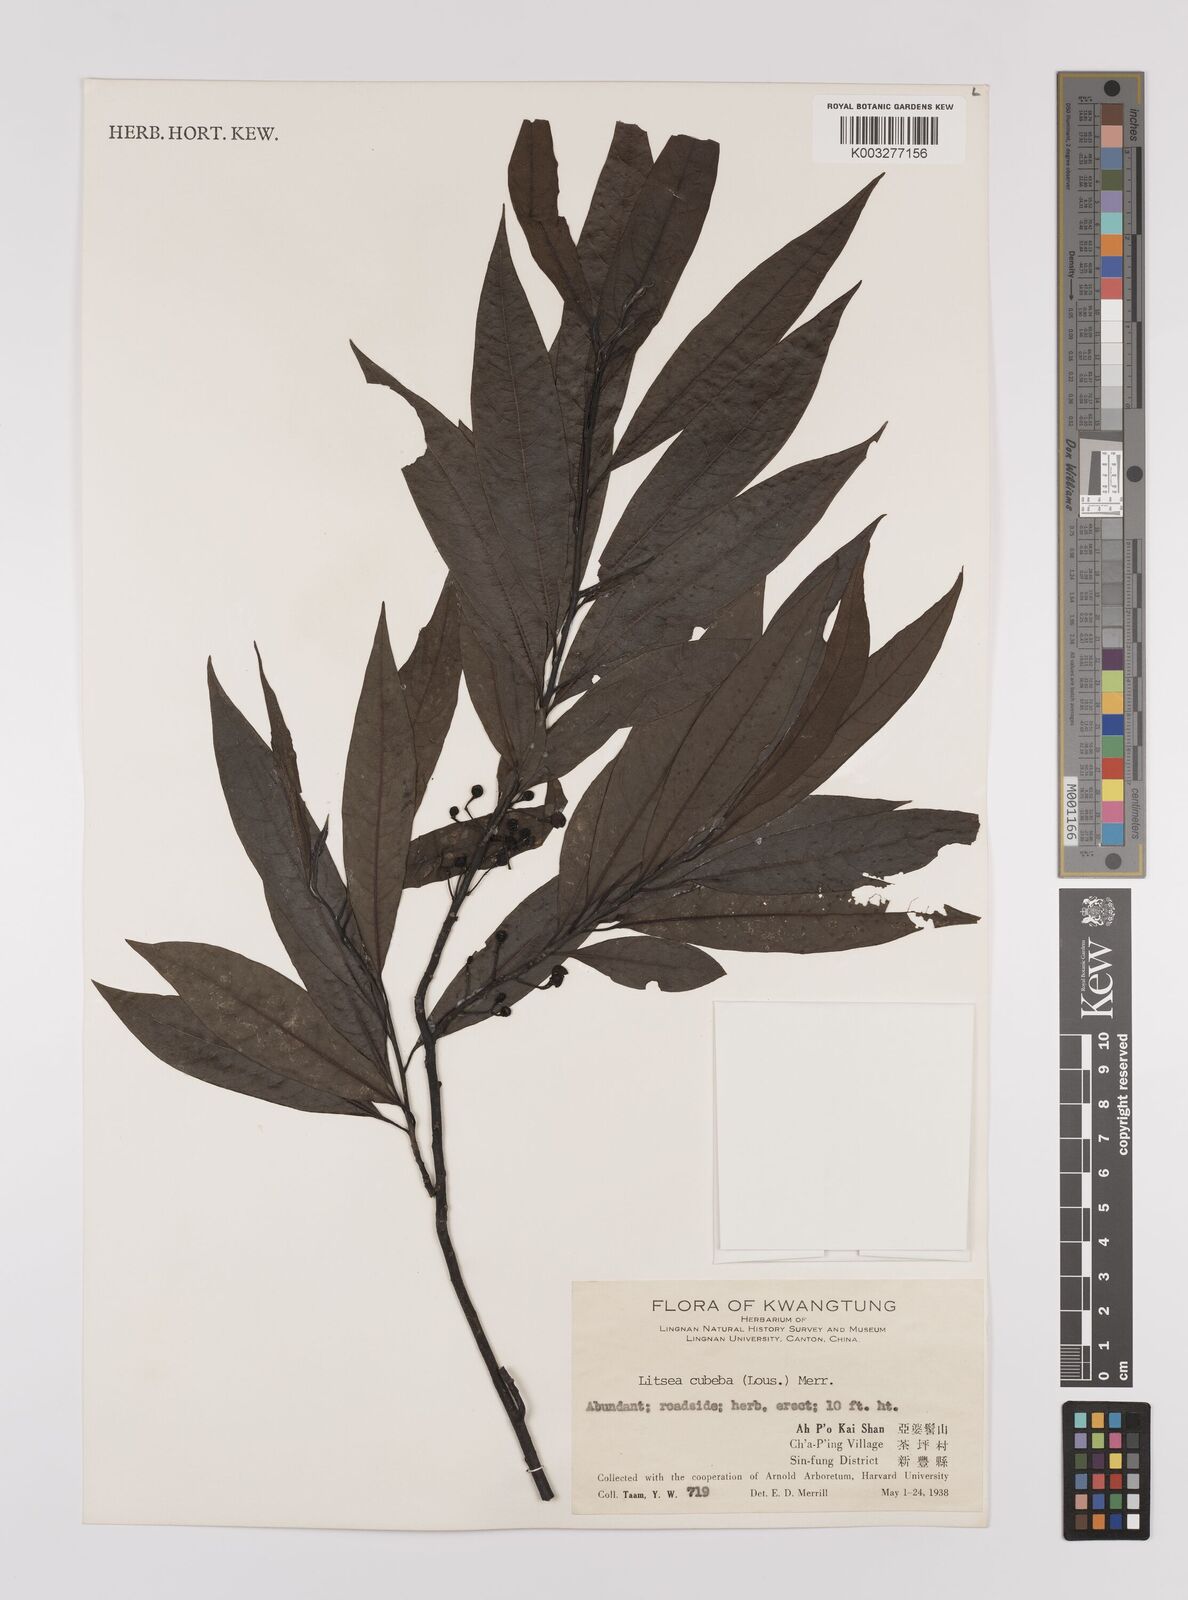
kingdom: Plantae
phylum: Tracheophyta
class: Magnoliopsida
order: Laurales
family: Lauraceae
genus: Litsea
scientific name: Litsea cubeba
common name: Mountain-pepper
